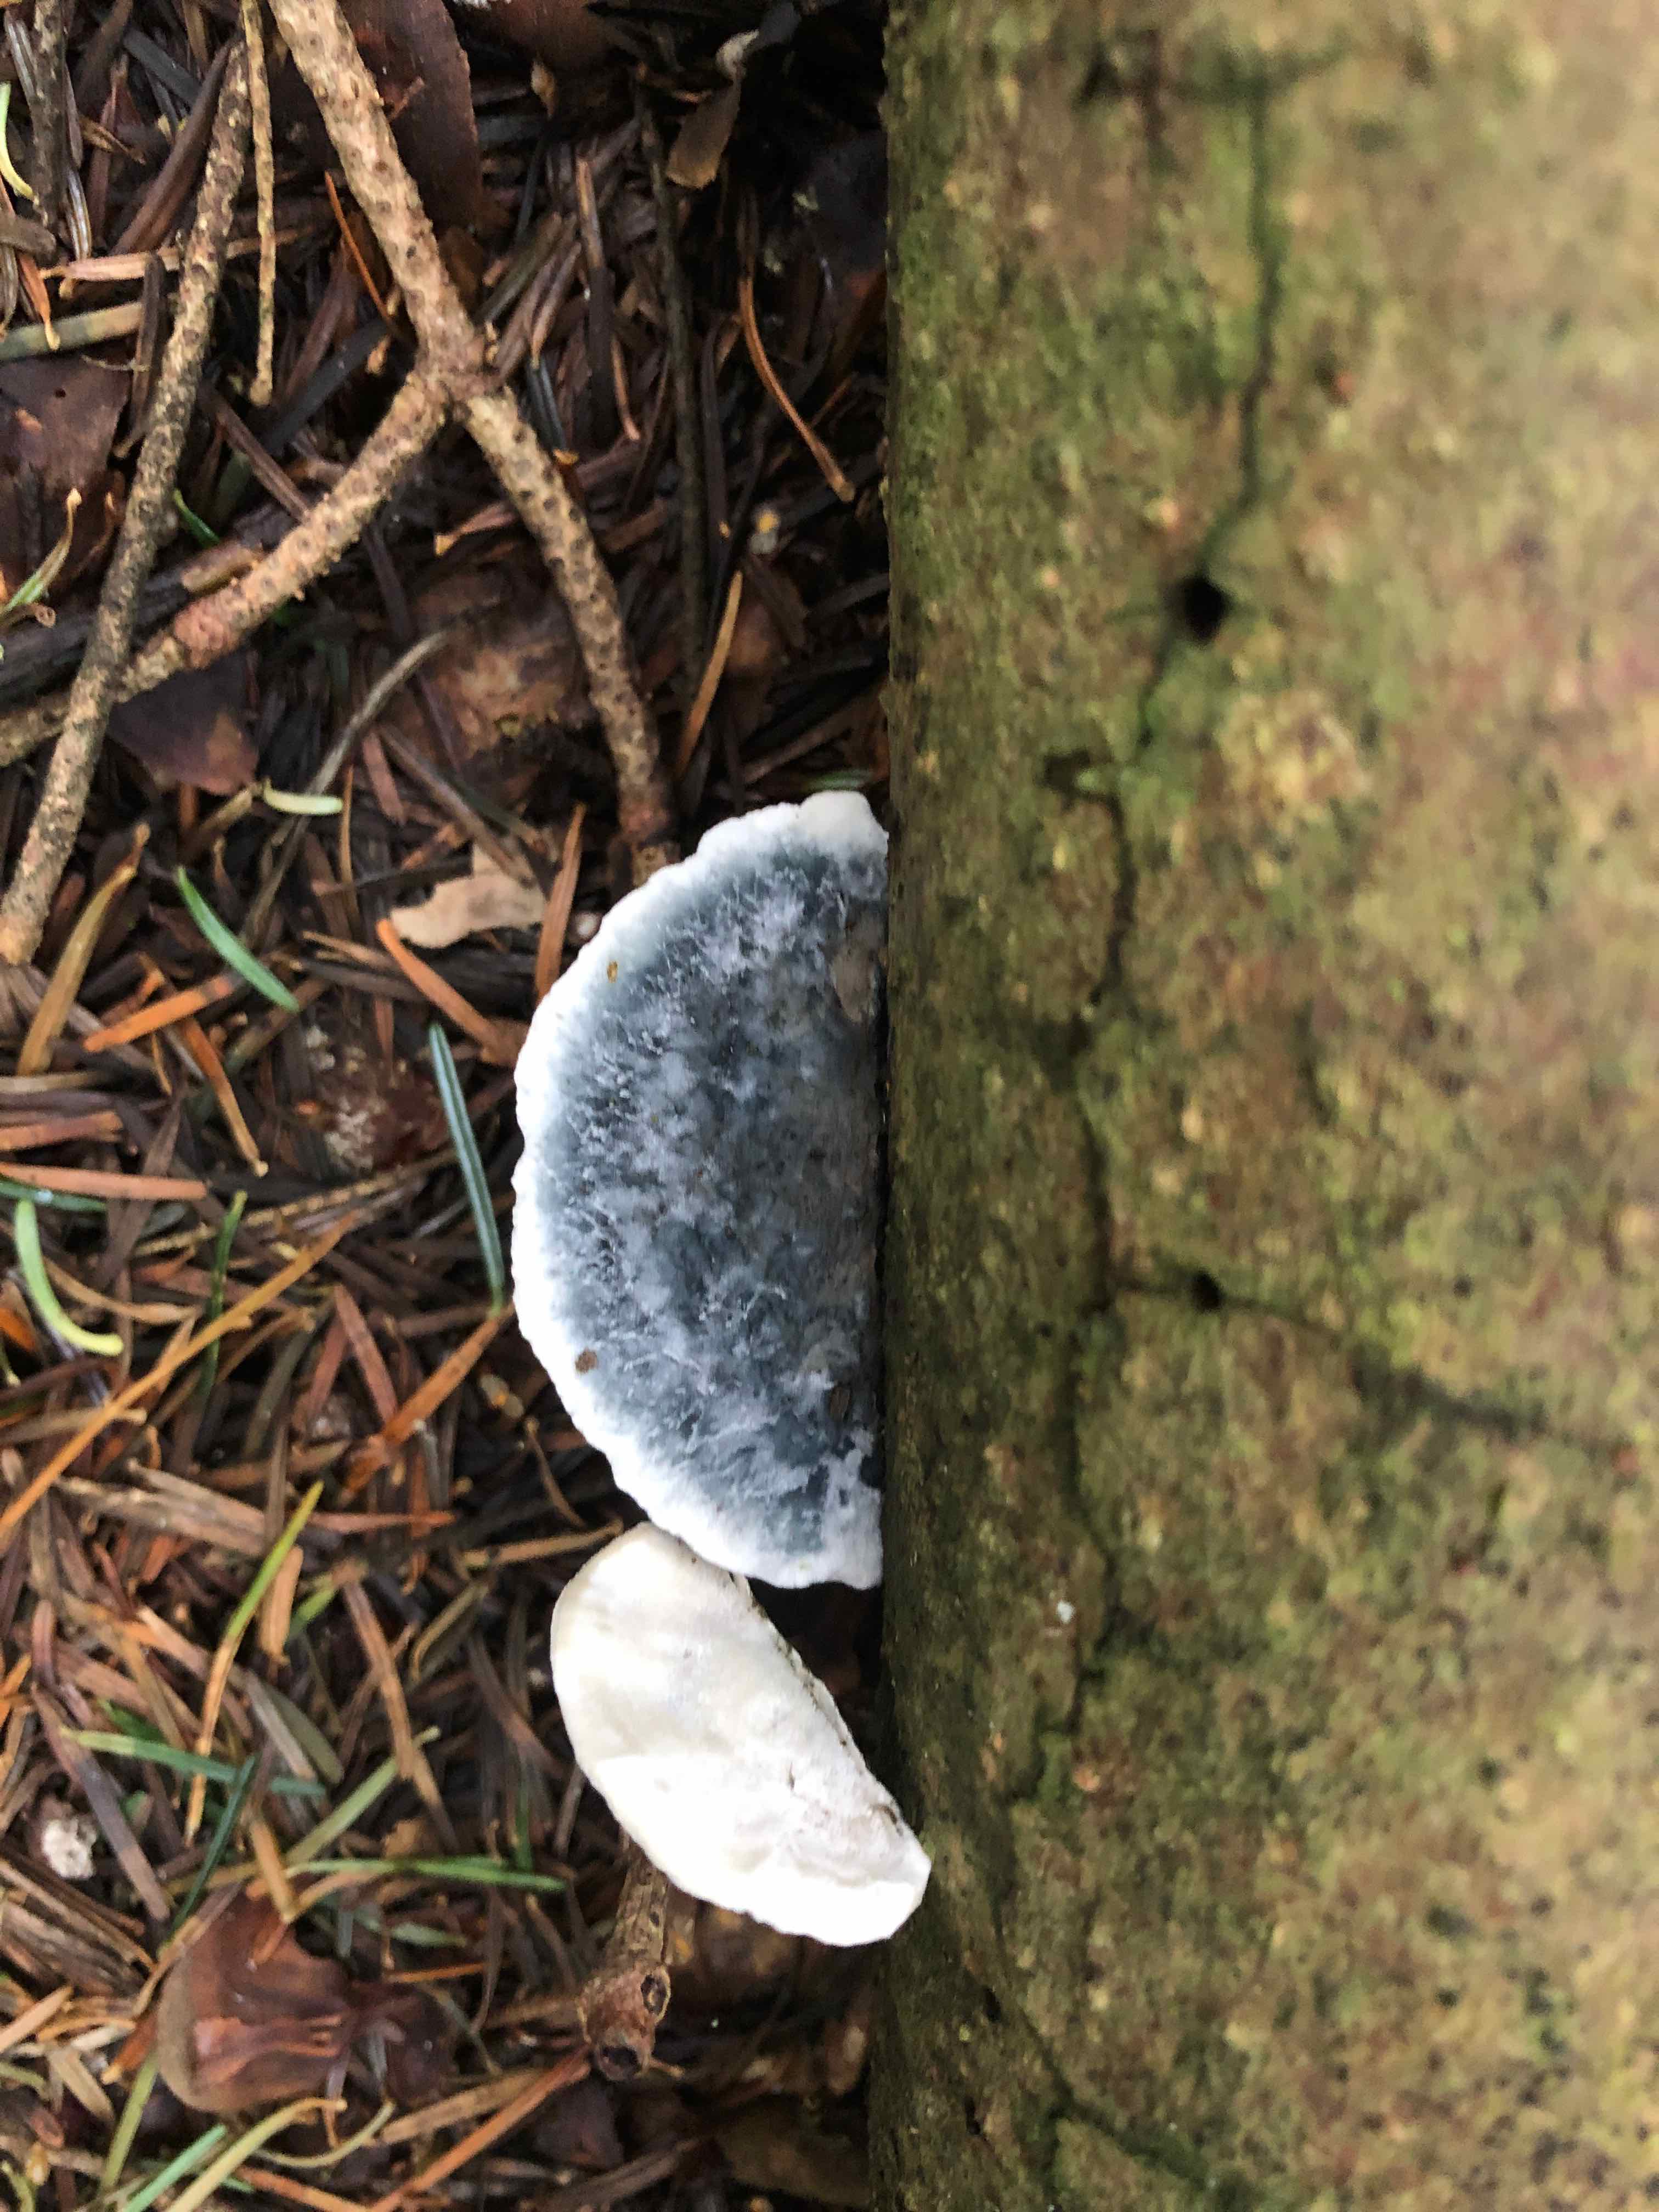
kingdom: Fungi
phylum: Basidiomycota
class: Agaricomycetes
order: Polyporales
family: Polyporaceae
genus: Cyanosporus
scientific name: Cyanosporus caesius
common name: blålig kødporesvamp
